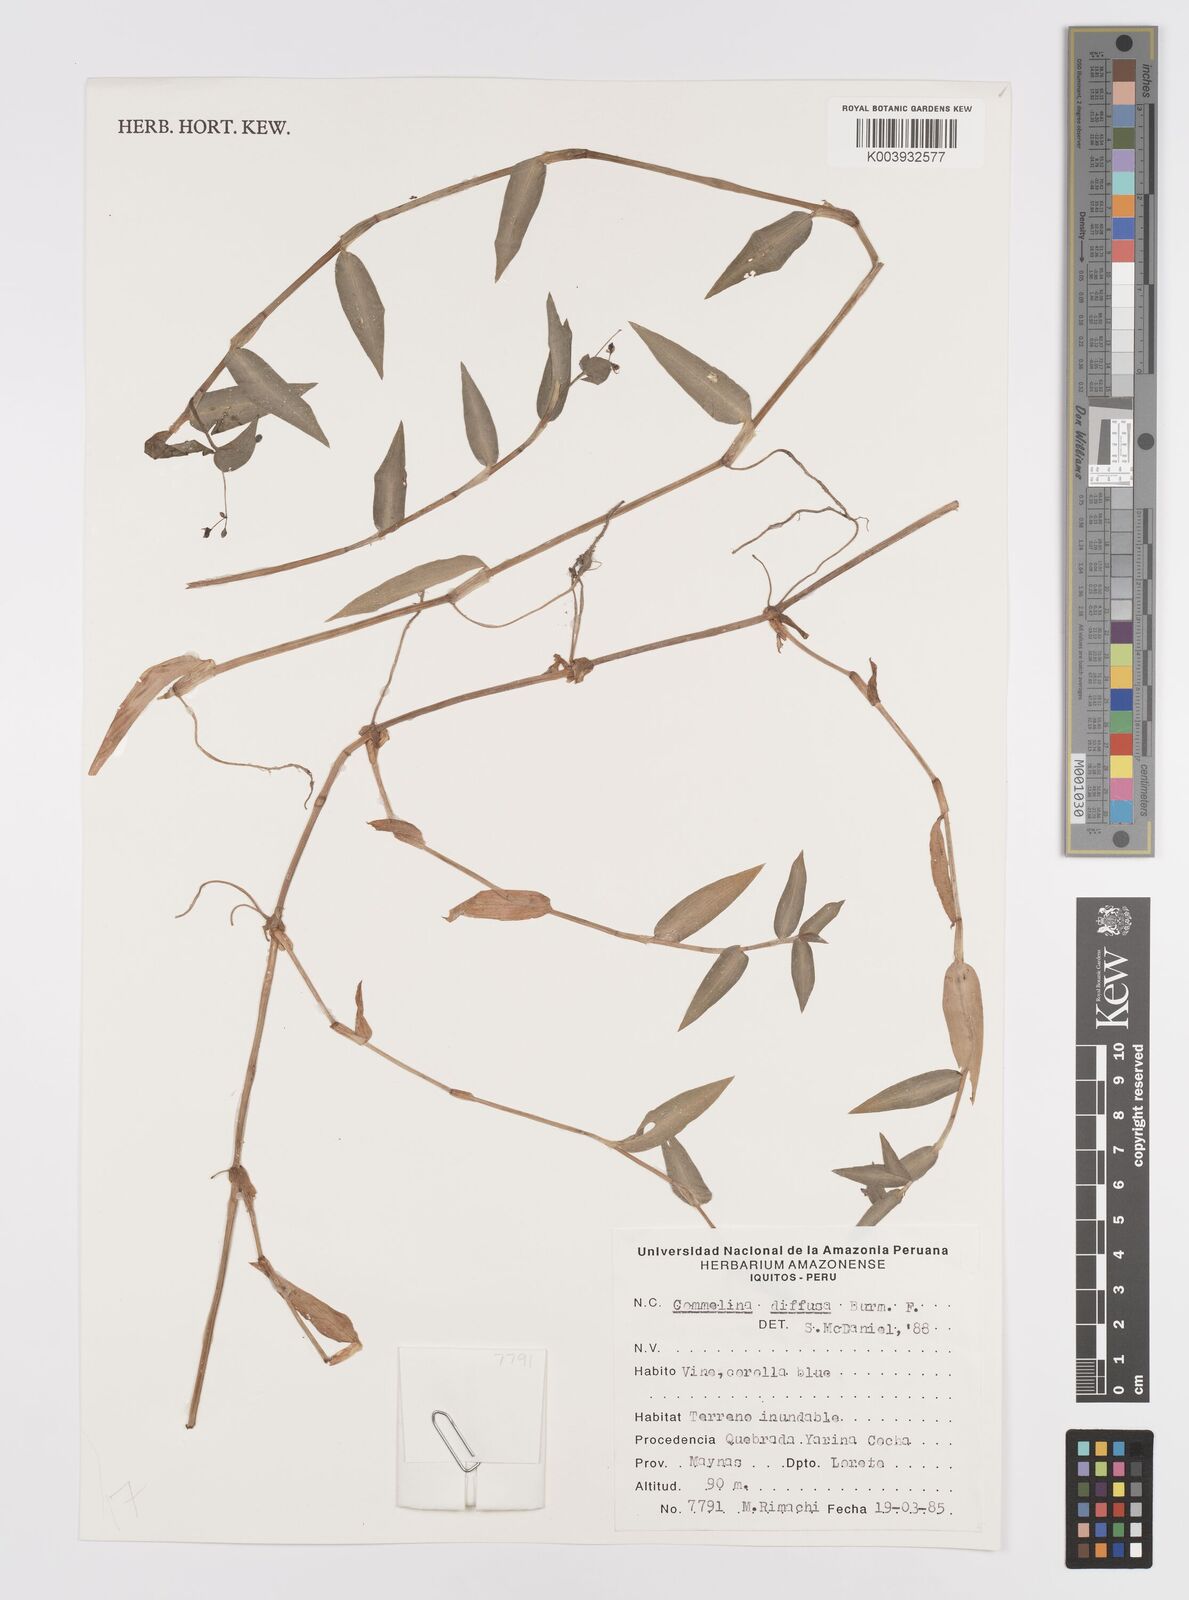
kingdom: Plantae
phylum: Tracheophyta
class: Liliopsida
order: Commelinales
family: Commelinaceae
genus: Commelina
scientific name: Commelina diffusa
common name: Climbing dayflower
